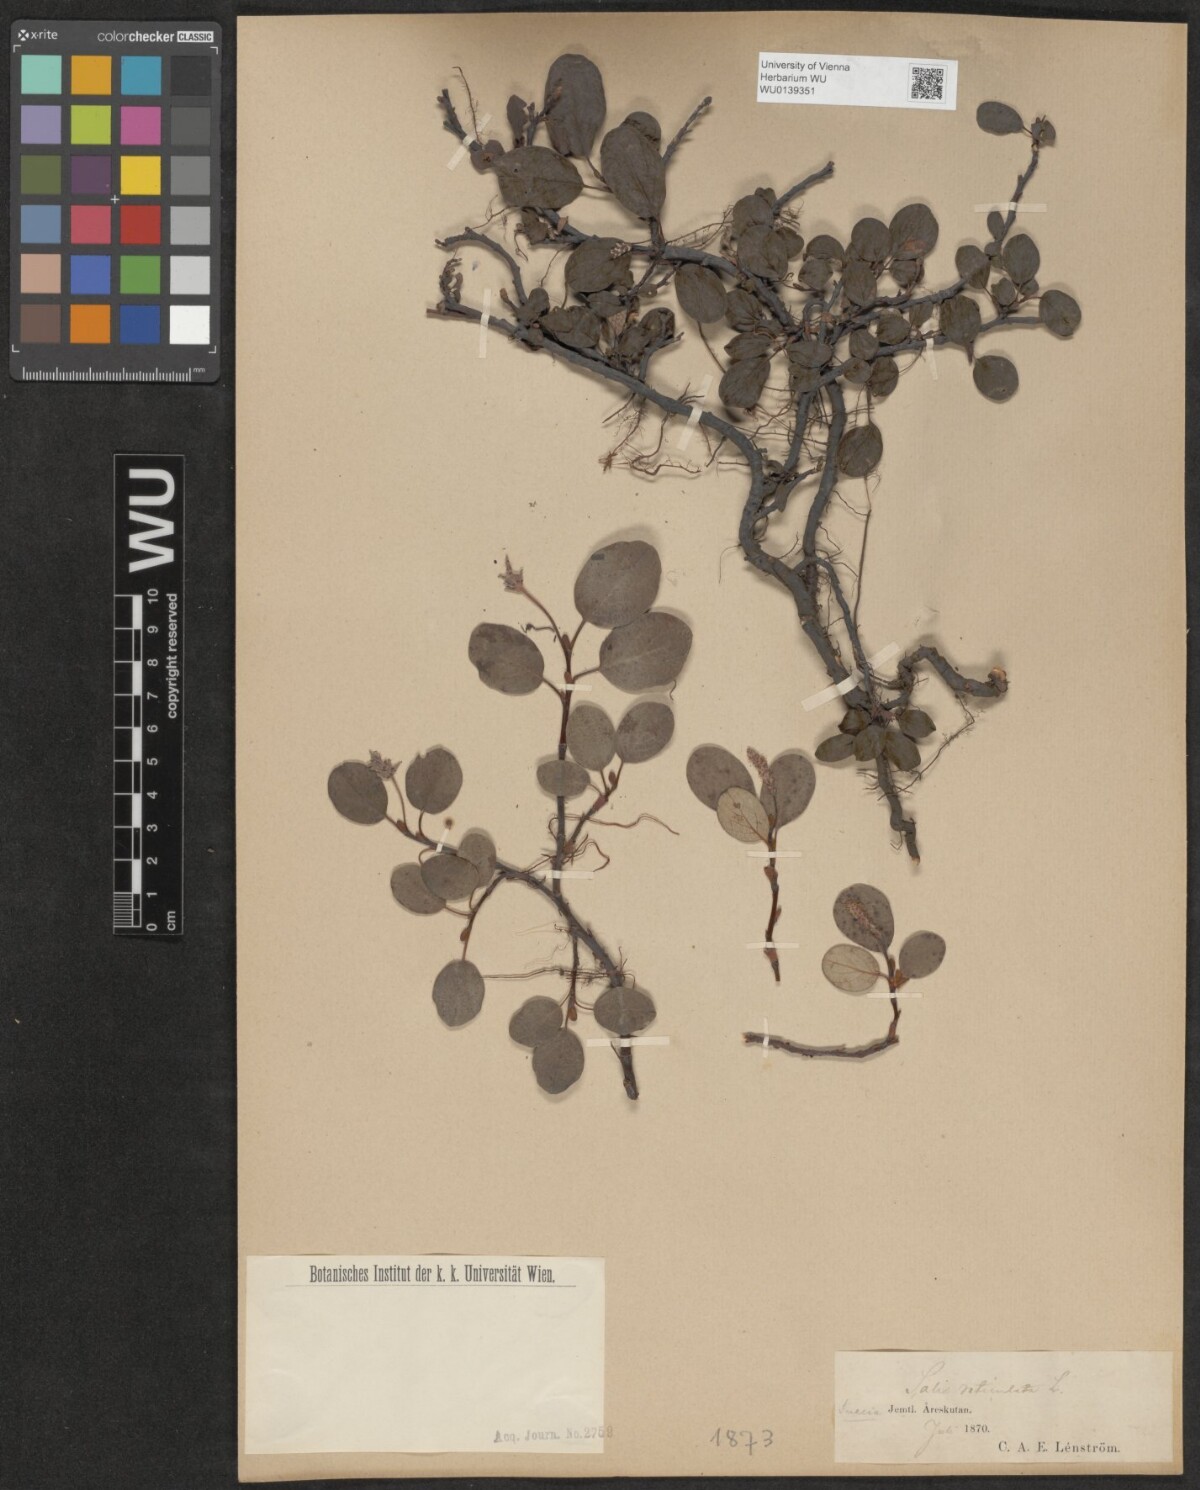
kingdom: Plantae
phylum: Tracheophyta
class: Magnoliopsida
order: Malpighiales
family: Salicaceae
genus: Salix
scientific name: Salix reticulata
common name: Net-leaved willow
